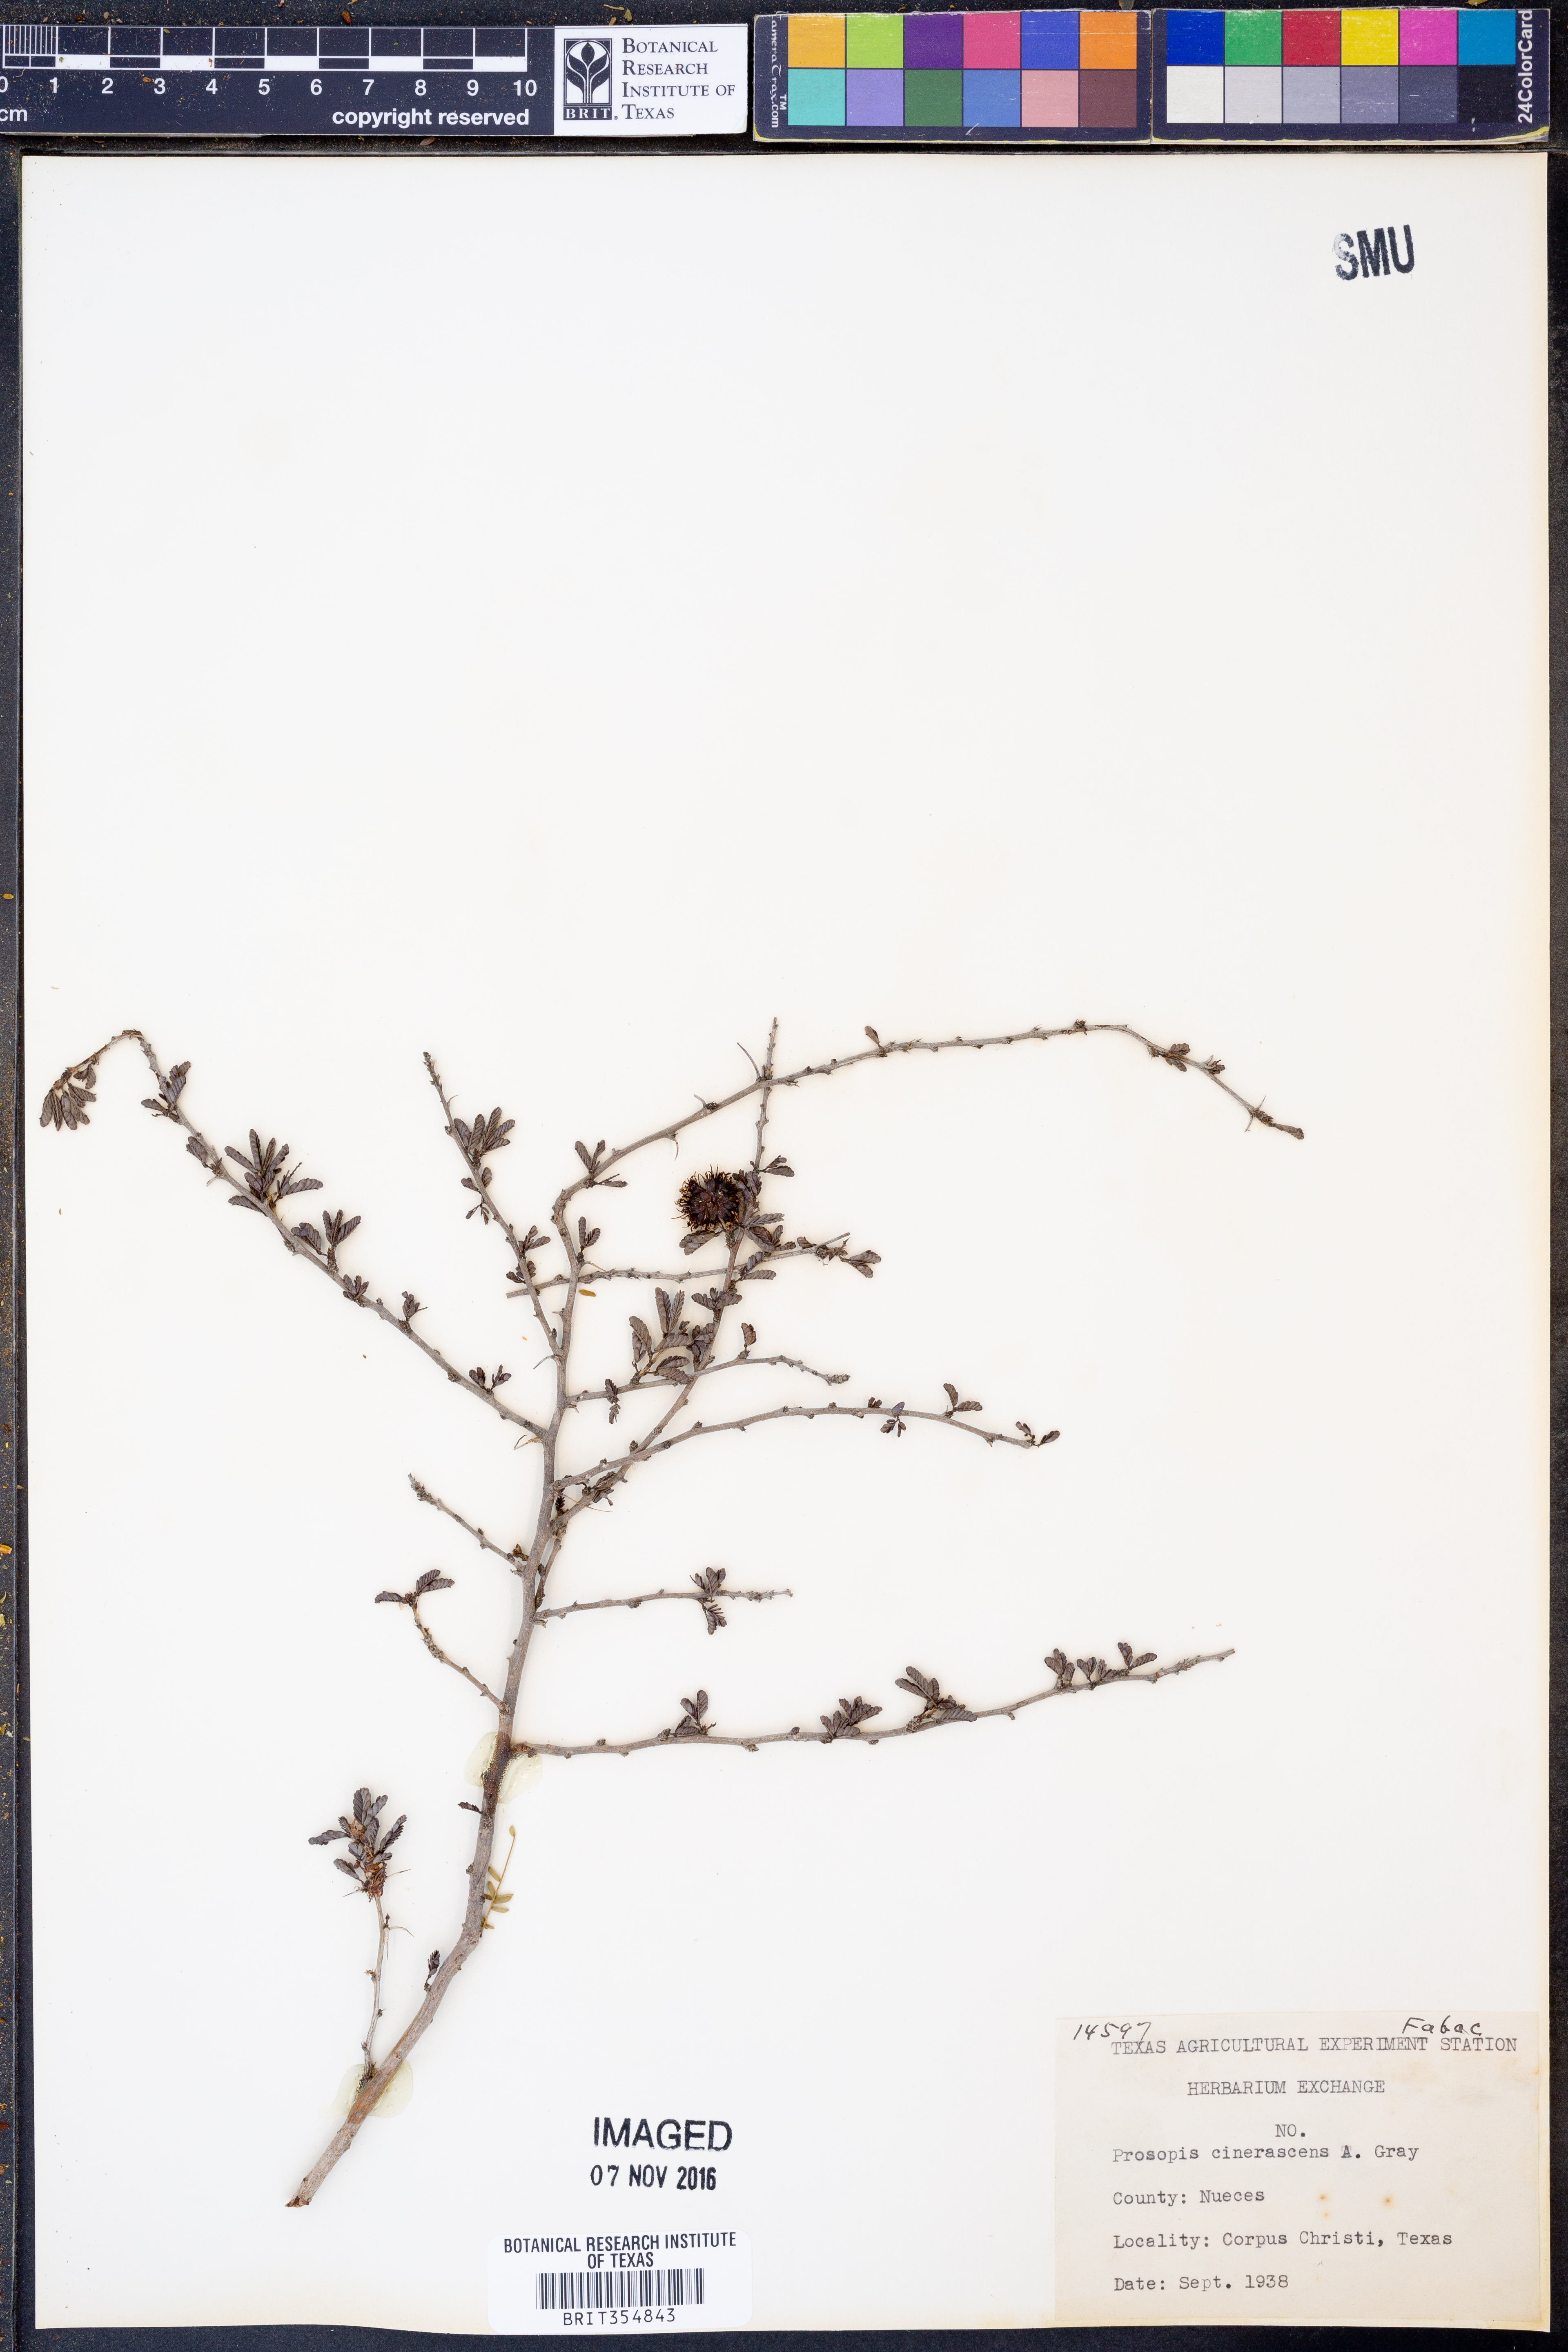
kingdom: Plantae
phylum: Tracheophyta
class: Magnoliopsida
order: Fabales
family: Fabaceae
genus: Prosopis
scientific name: Prosopis cinerascens
